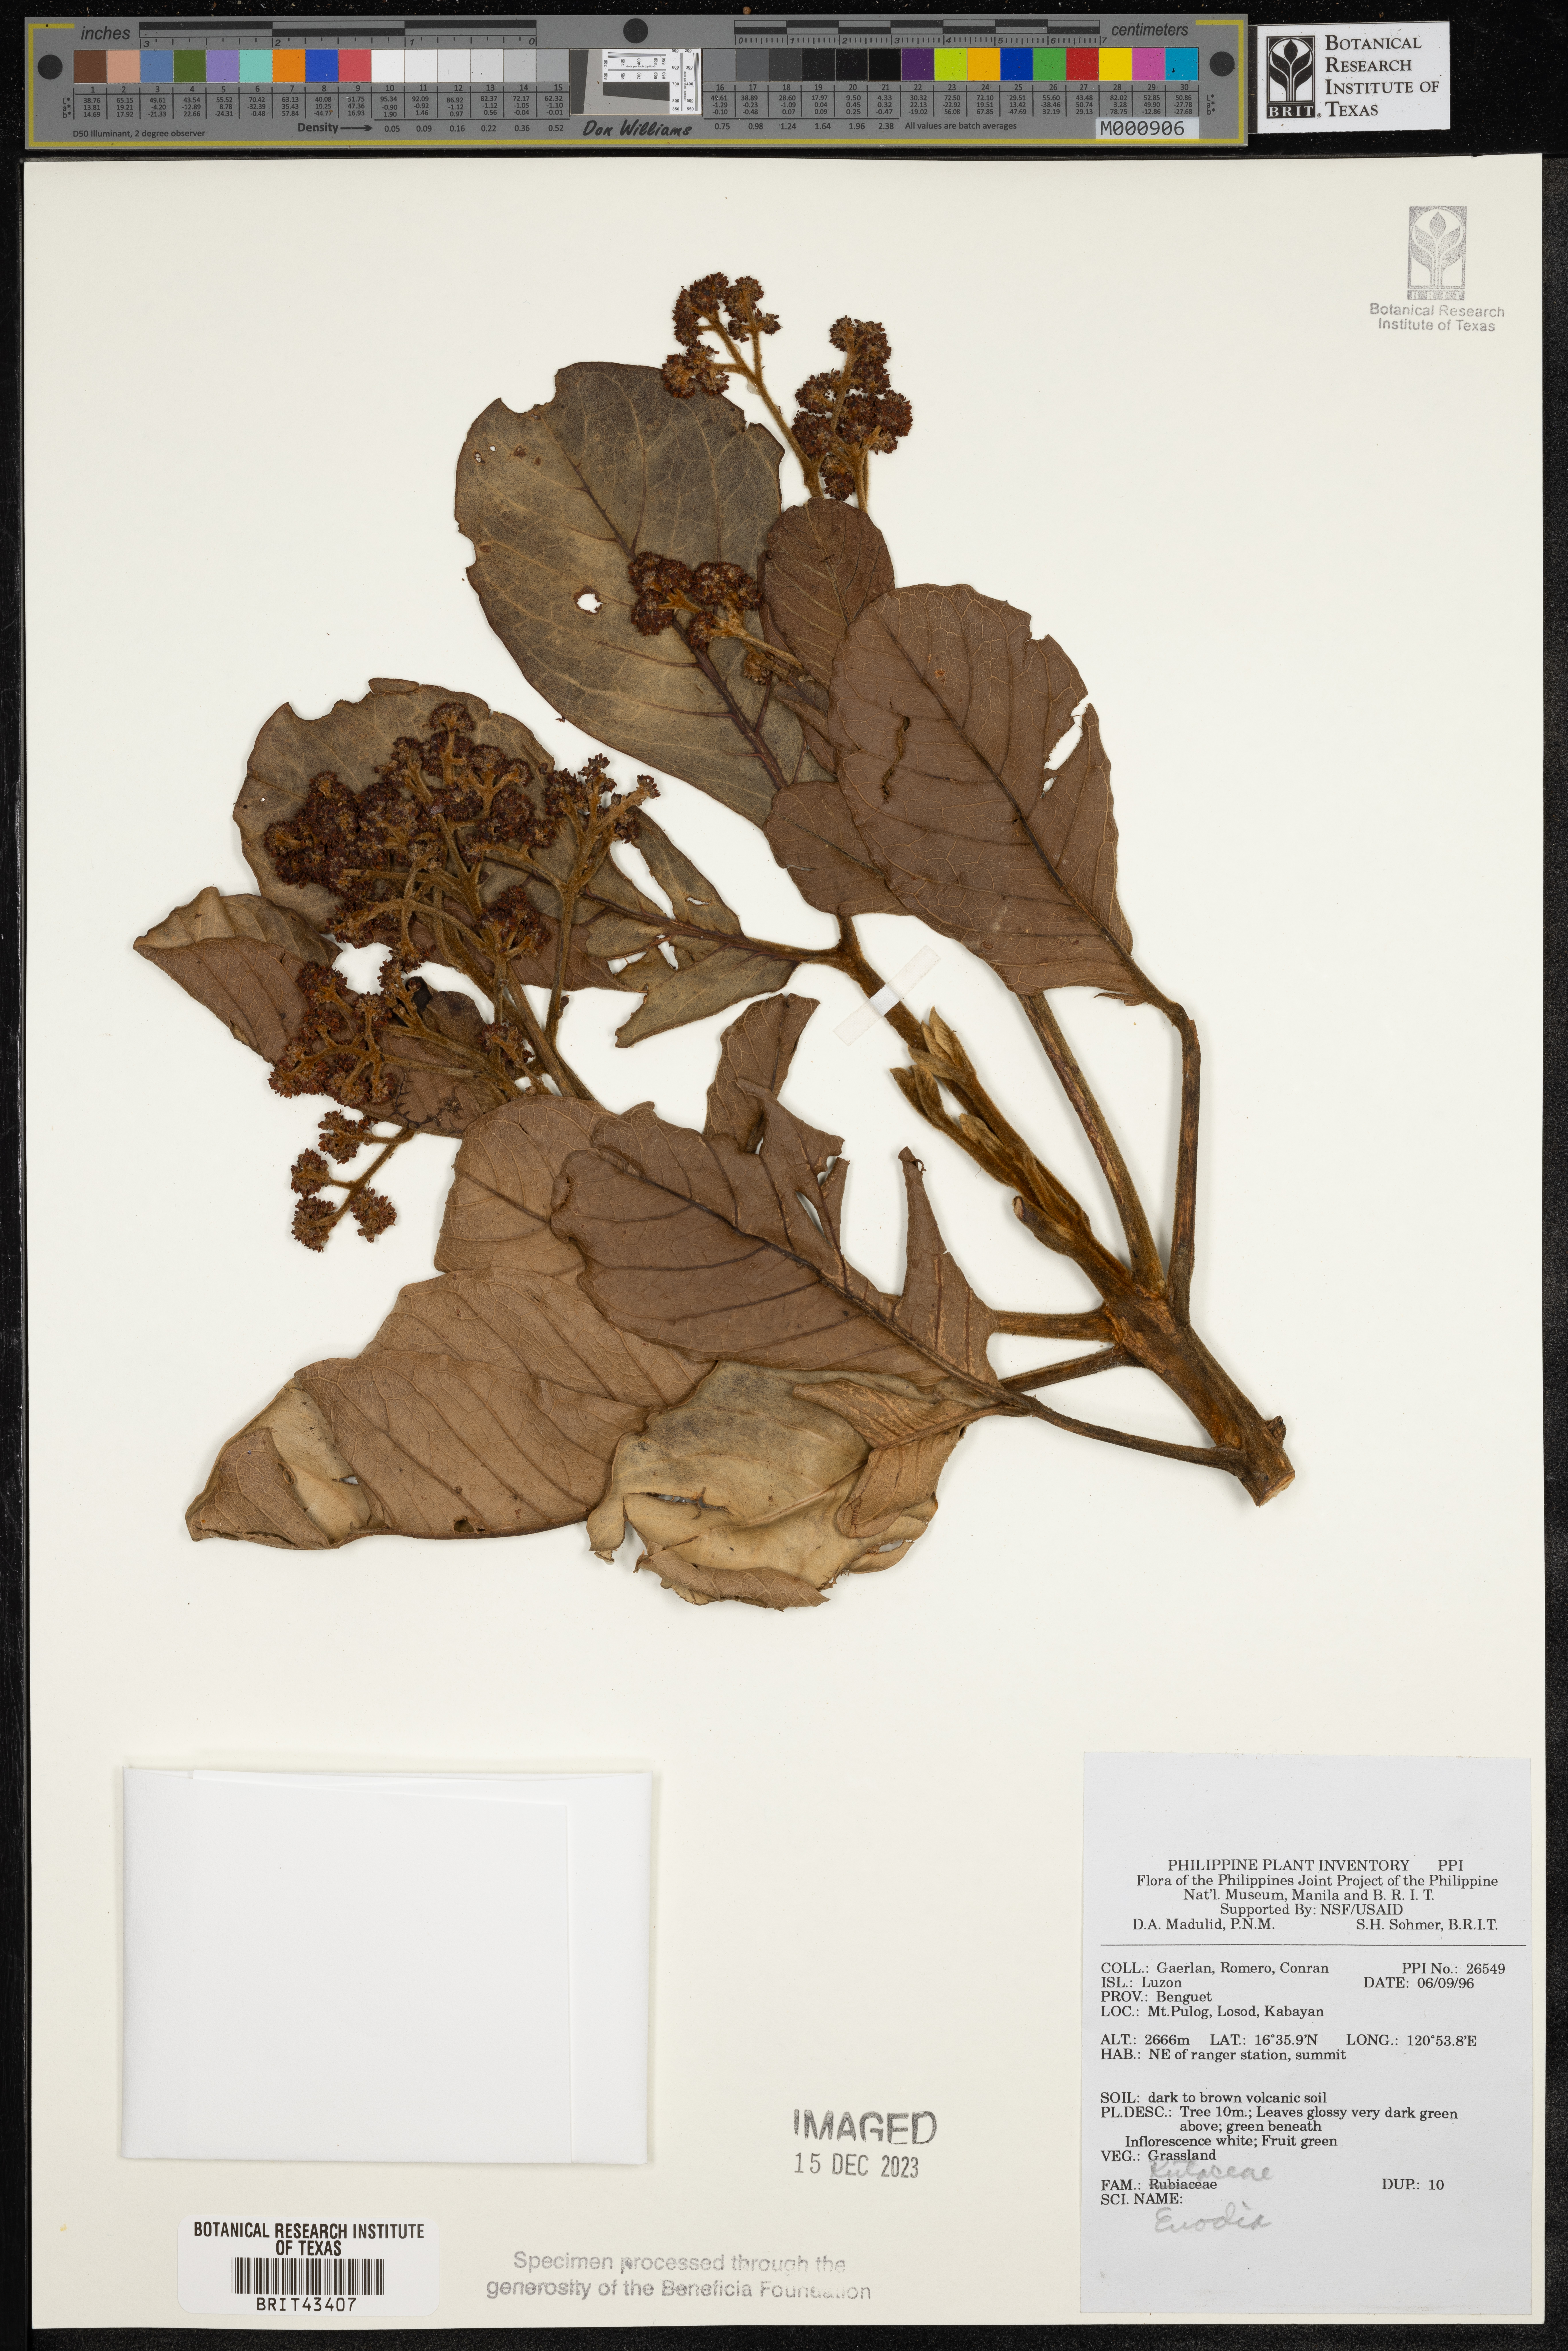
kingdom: Plantae
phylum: Tracheophyta
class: Magnoliopsida
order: Sapindales
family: Rutaceae
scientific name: Rutaceae
